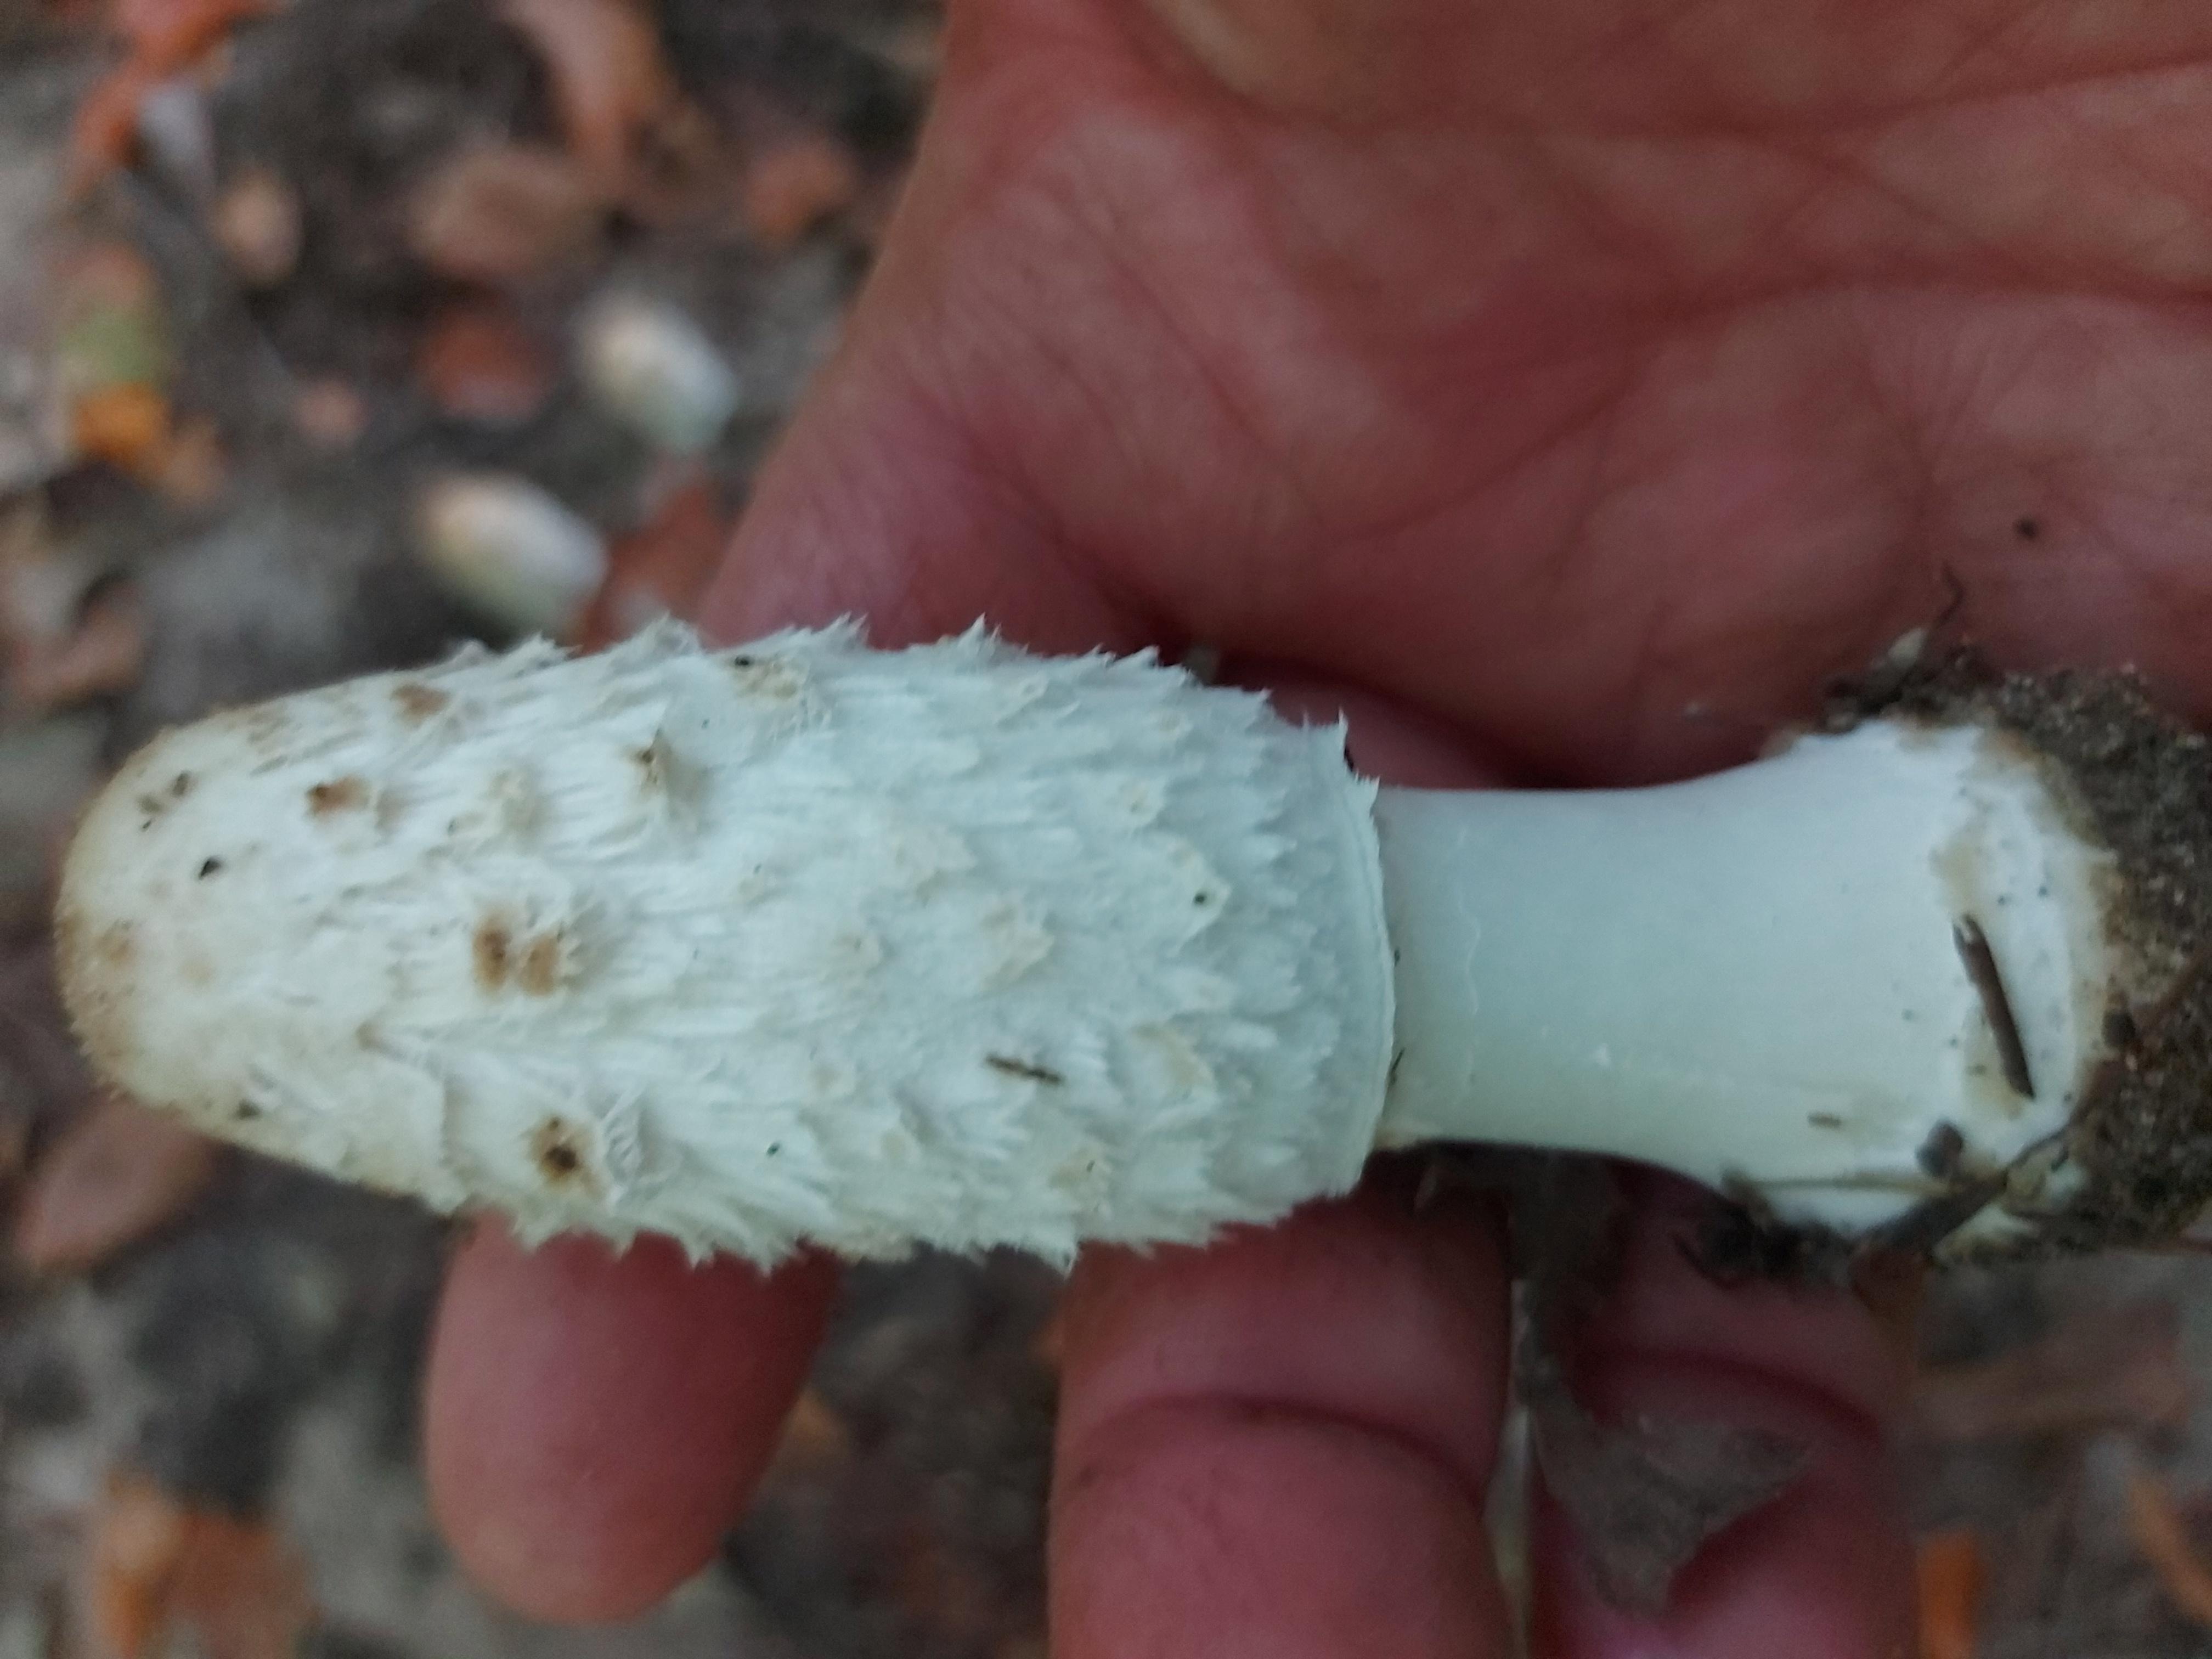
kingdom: Fungi
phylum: Basidiomycota
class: Agaricomycetes
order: Agaricales
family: Agaricaceae
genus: Coprinus
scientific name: Coprinus comatus
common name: stor parykhat
